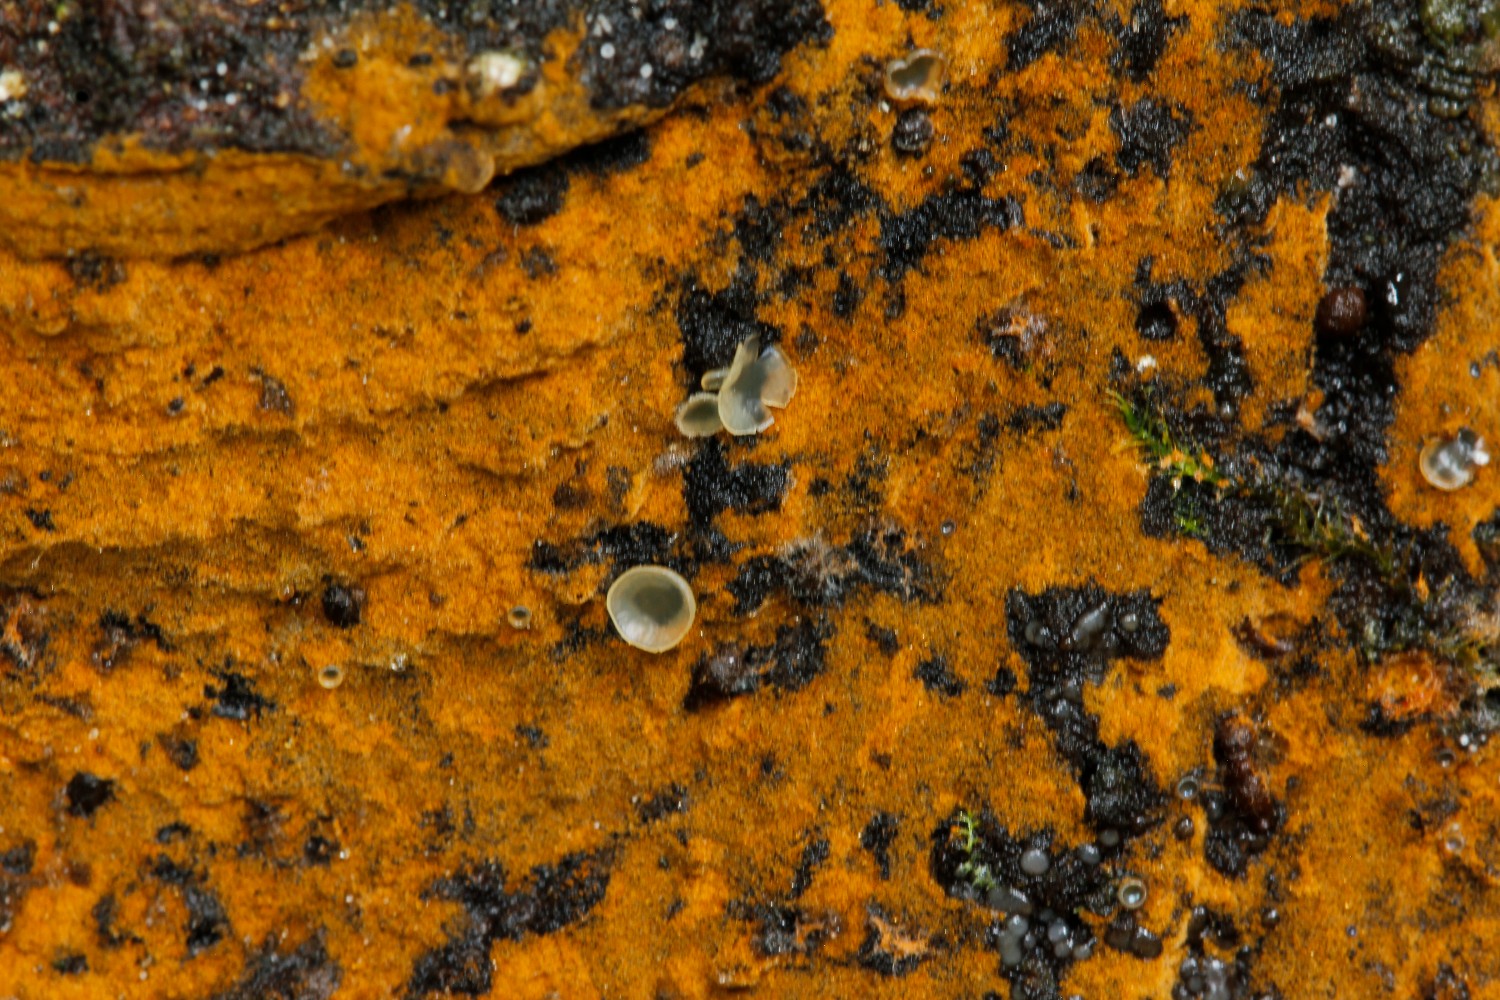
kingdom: Fungi
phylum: Ascomycota
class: Orbiliomycetes
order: Orbiliales
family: Orbiliaceae
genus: Hyalorbilia
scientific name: Hyalorbilia inflatula
